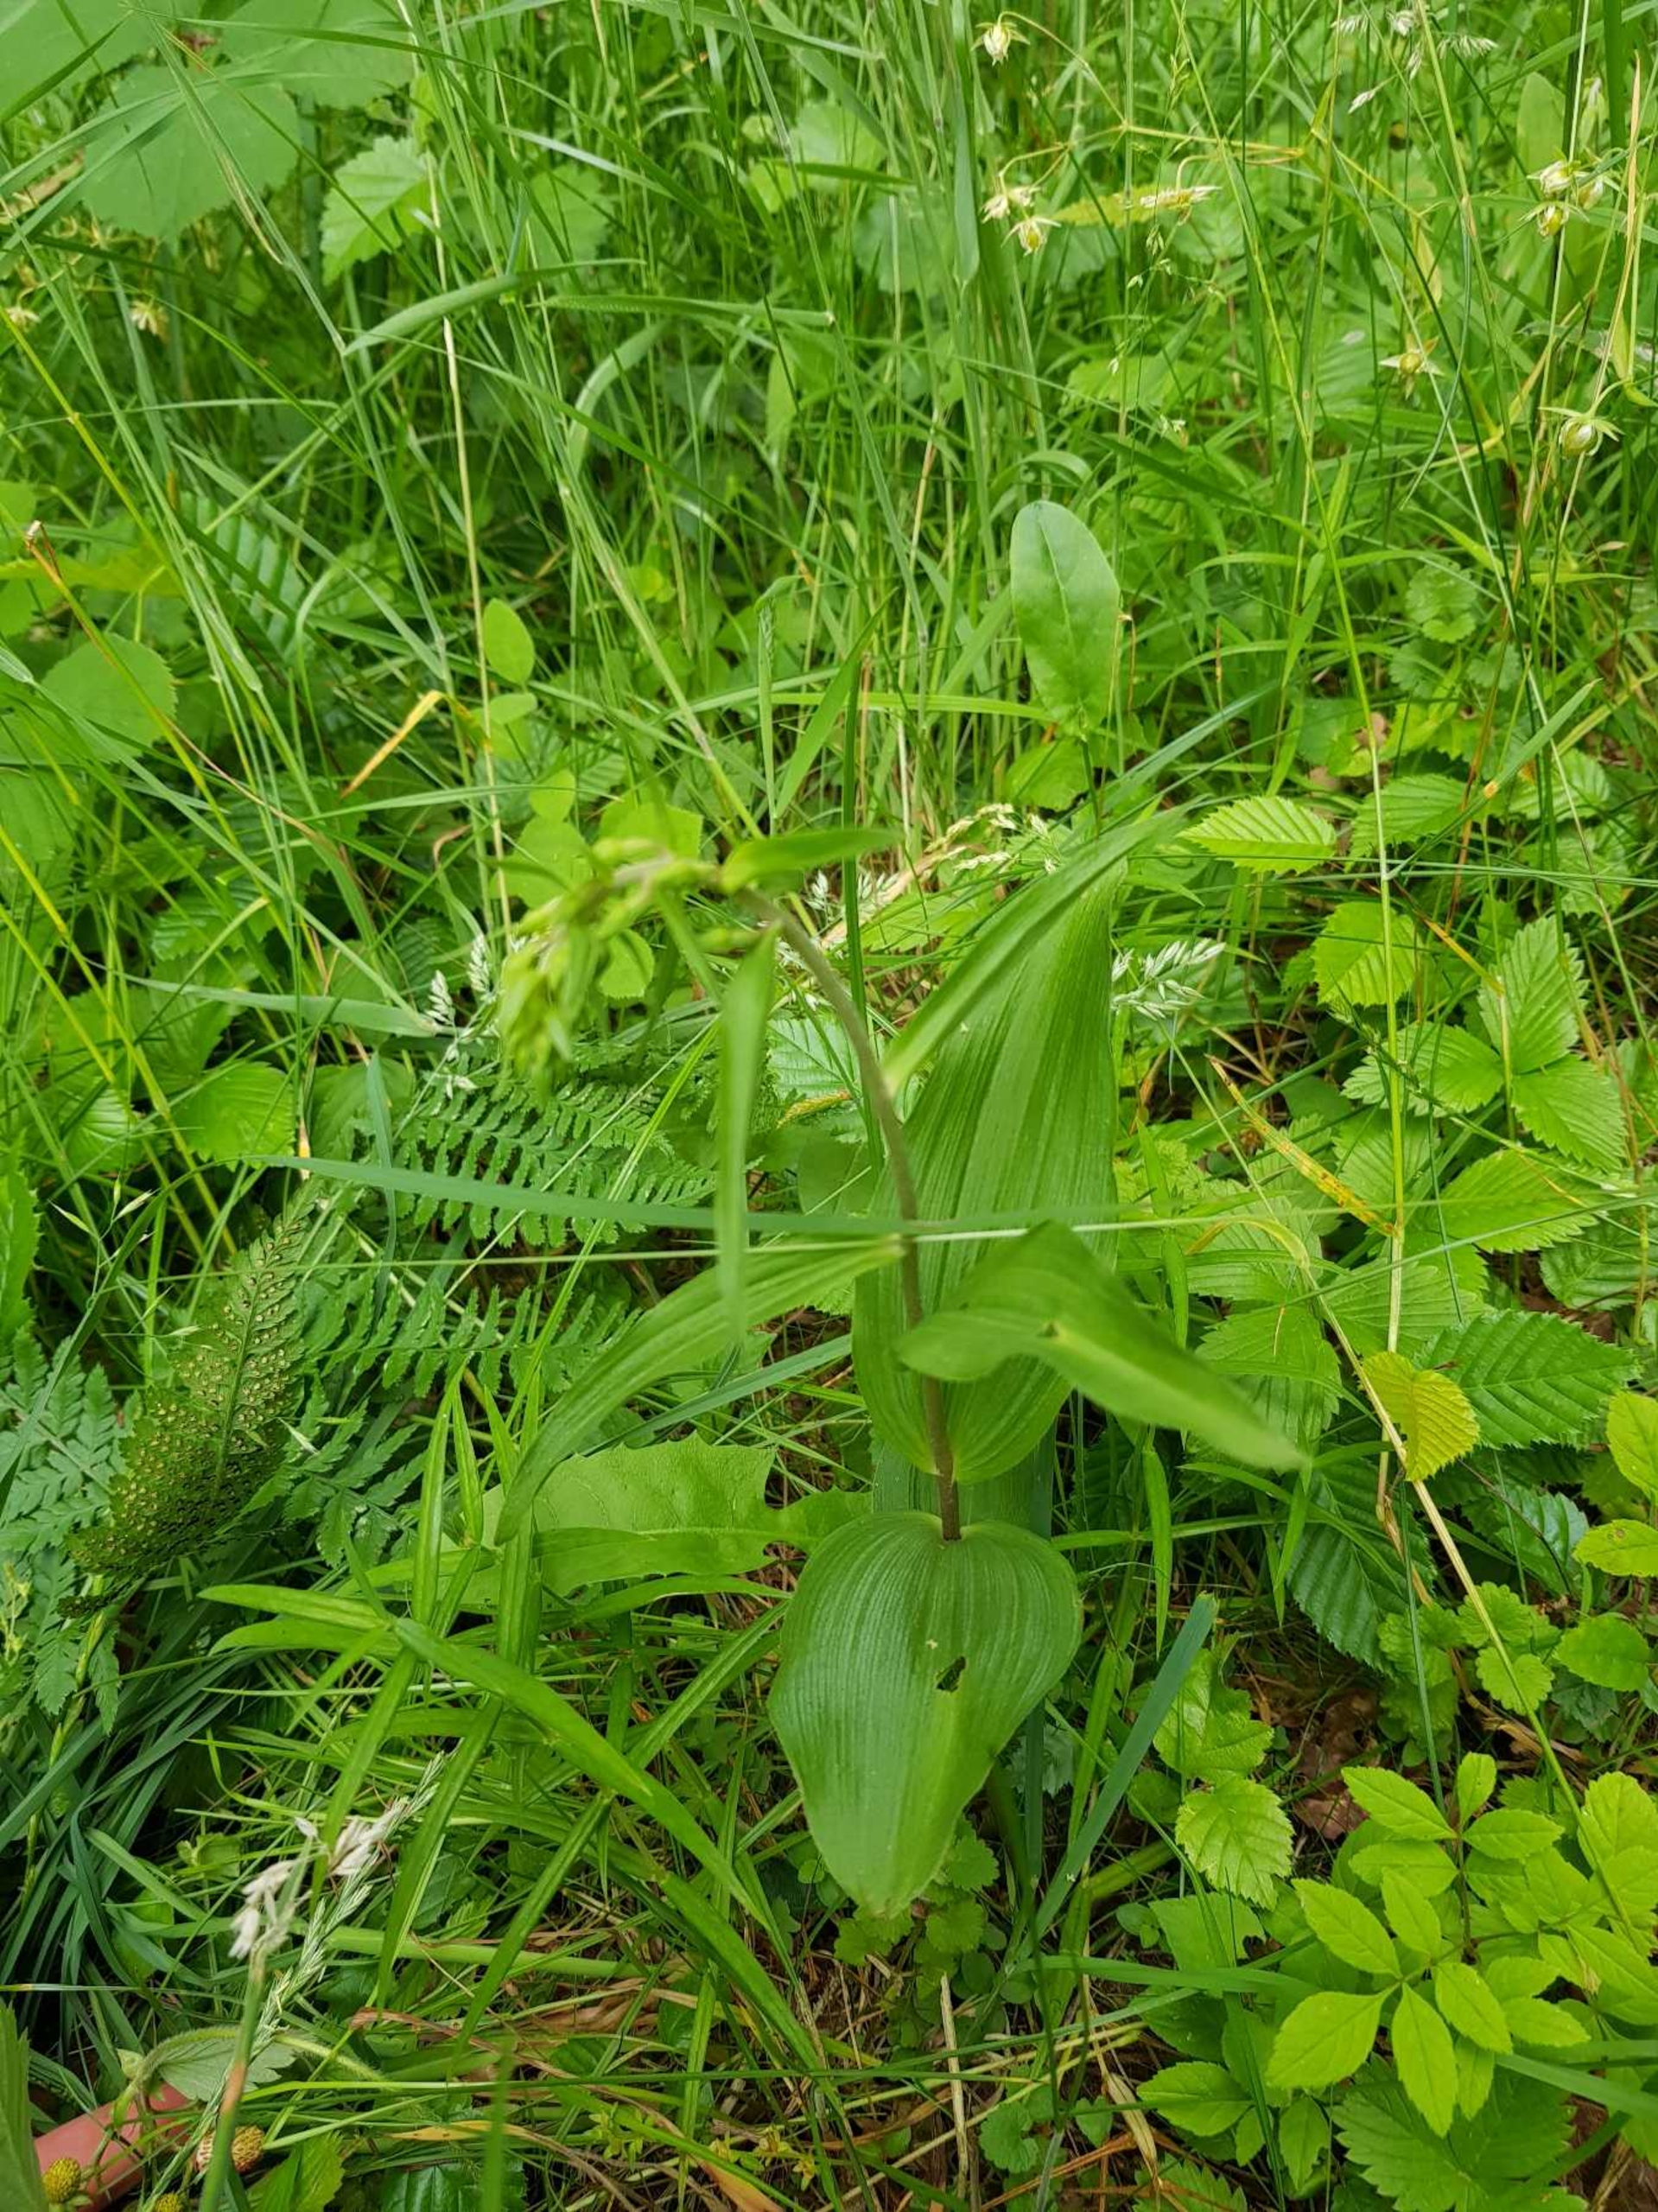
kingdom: Plantae
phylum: Tracheophyta
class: Liliopsida
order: Asparagales
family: Orchidaceae
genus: Epipactis
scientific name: Epipactis helleborine
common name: Skov-hullæbe
